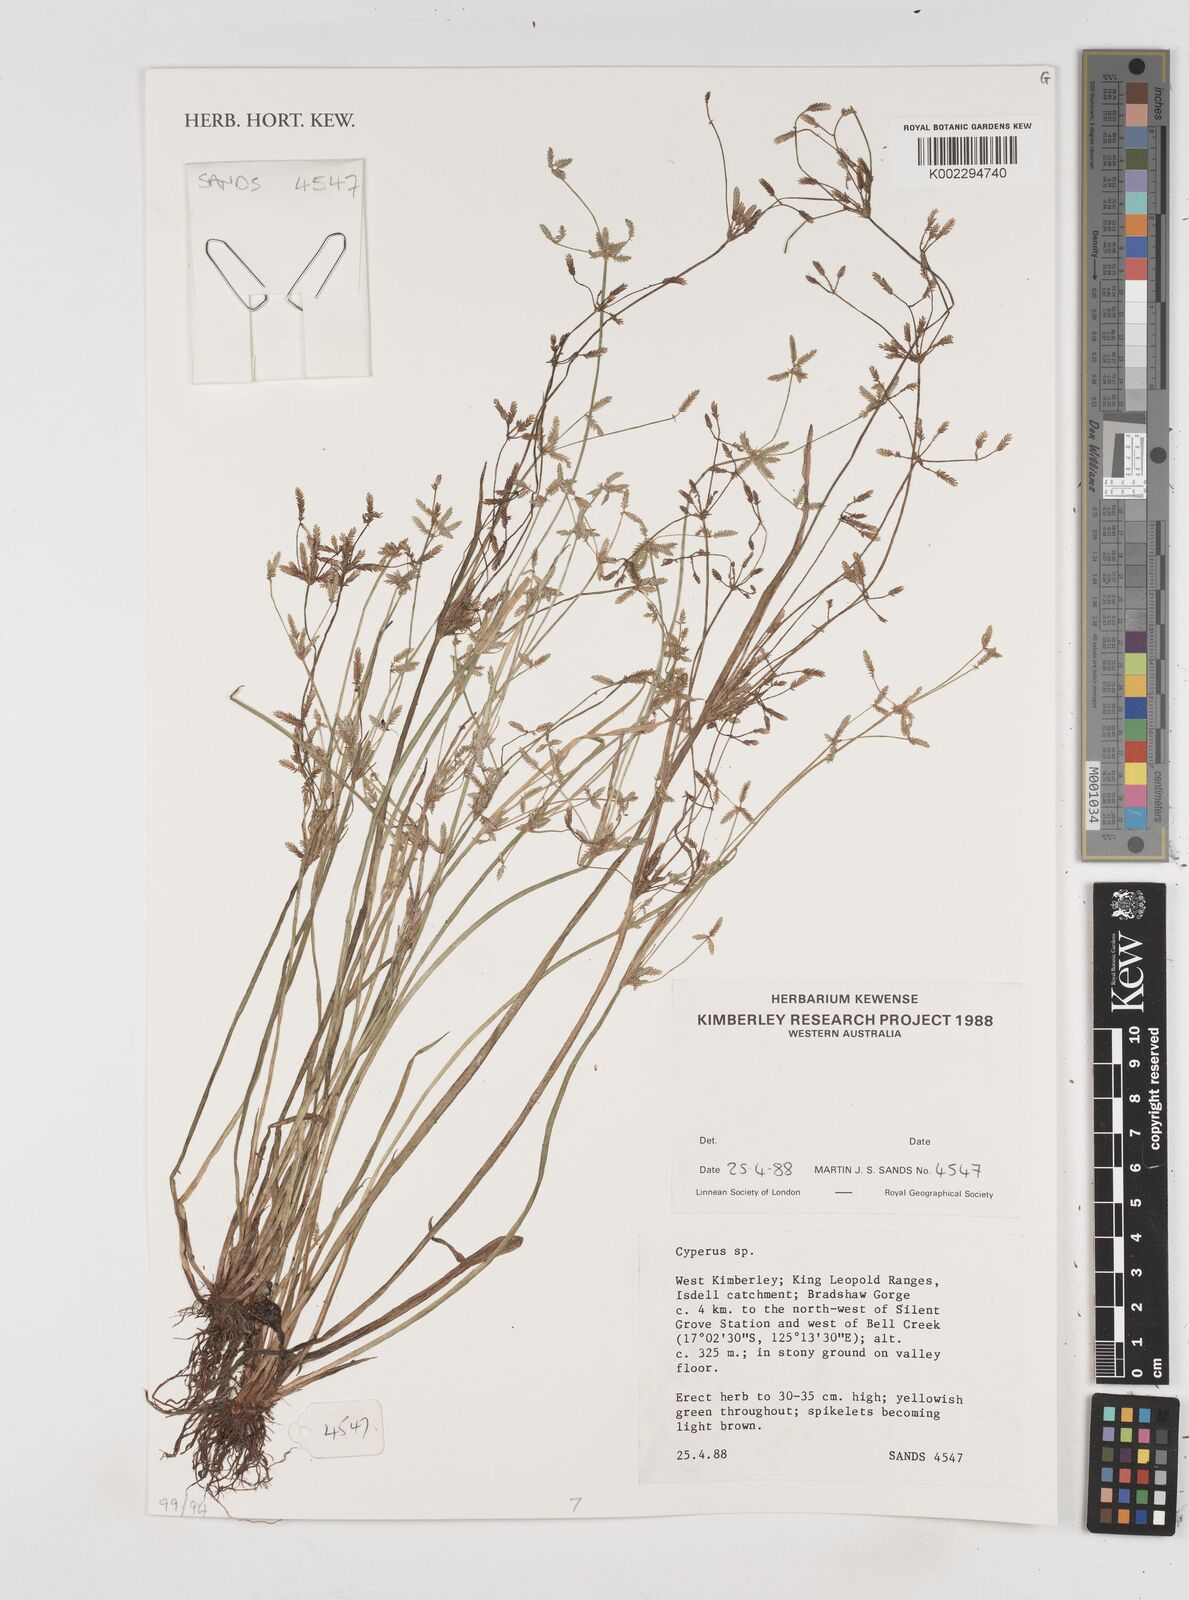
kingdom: Plantae
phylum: Tracheophyta
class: Liliopsida
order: Poales
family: Cyperaceae
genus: Cyperus
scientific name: Cyperus
